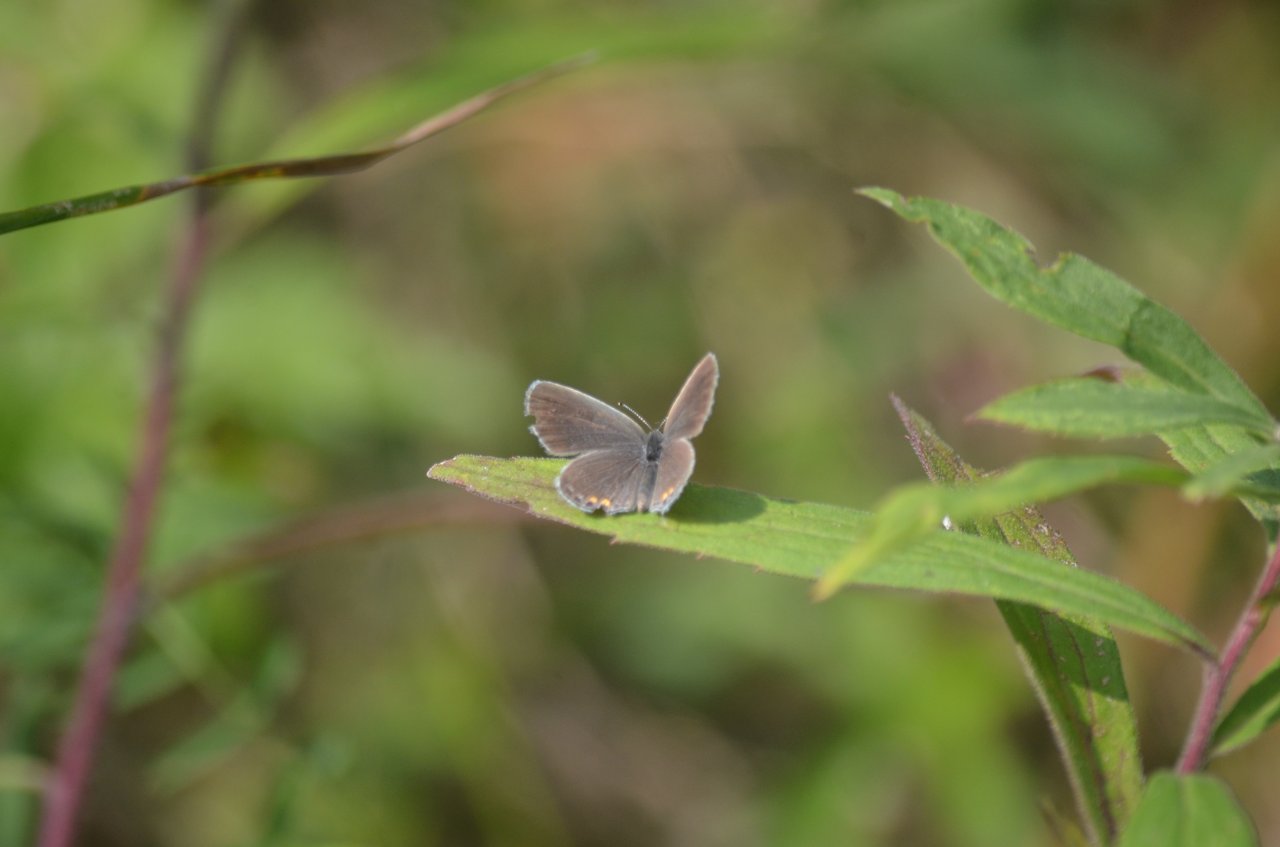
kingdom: Animalia
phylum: Arthropoda
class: Insecta
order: Lepidoptera
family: Lycaenidae
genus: Elkalyce
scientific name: Elkalyce comyntas
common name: Eastern Tailed-Blue
